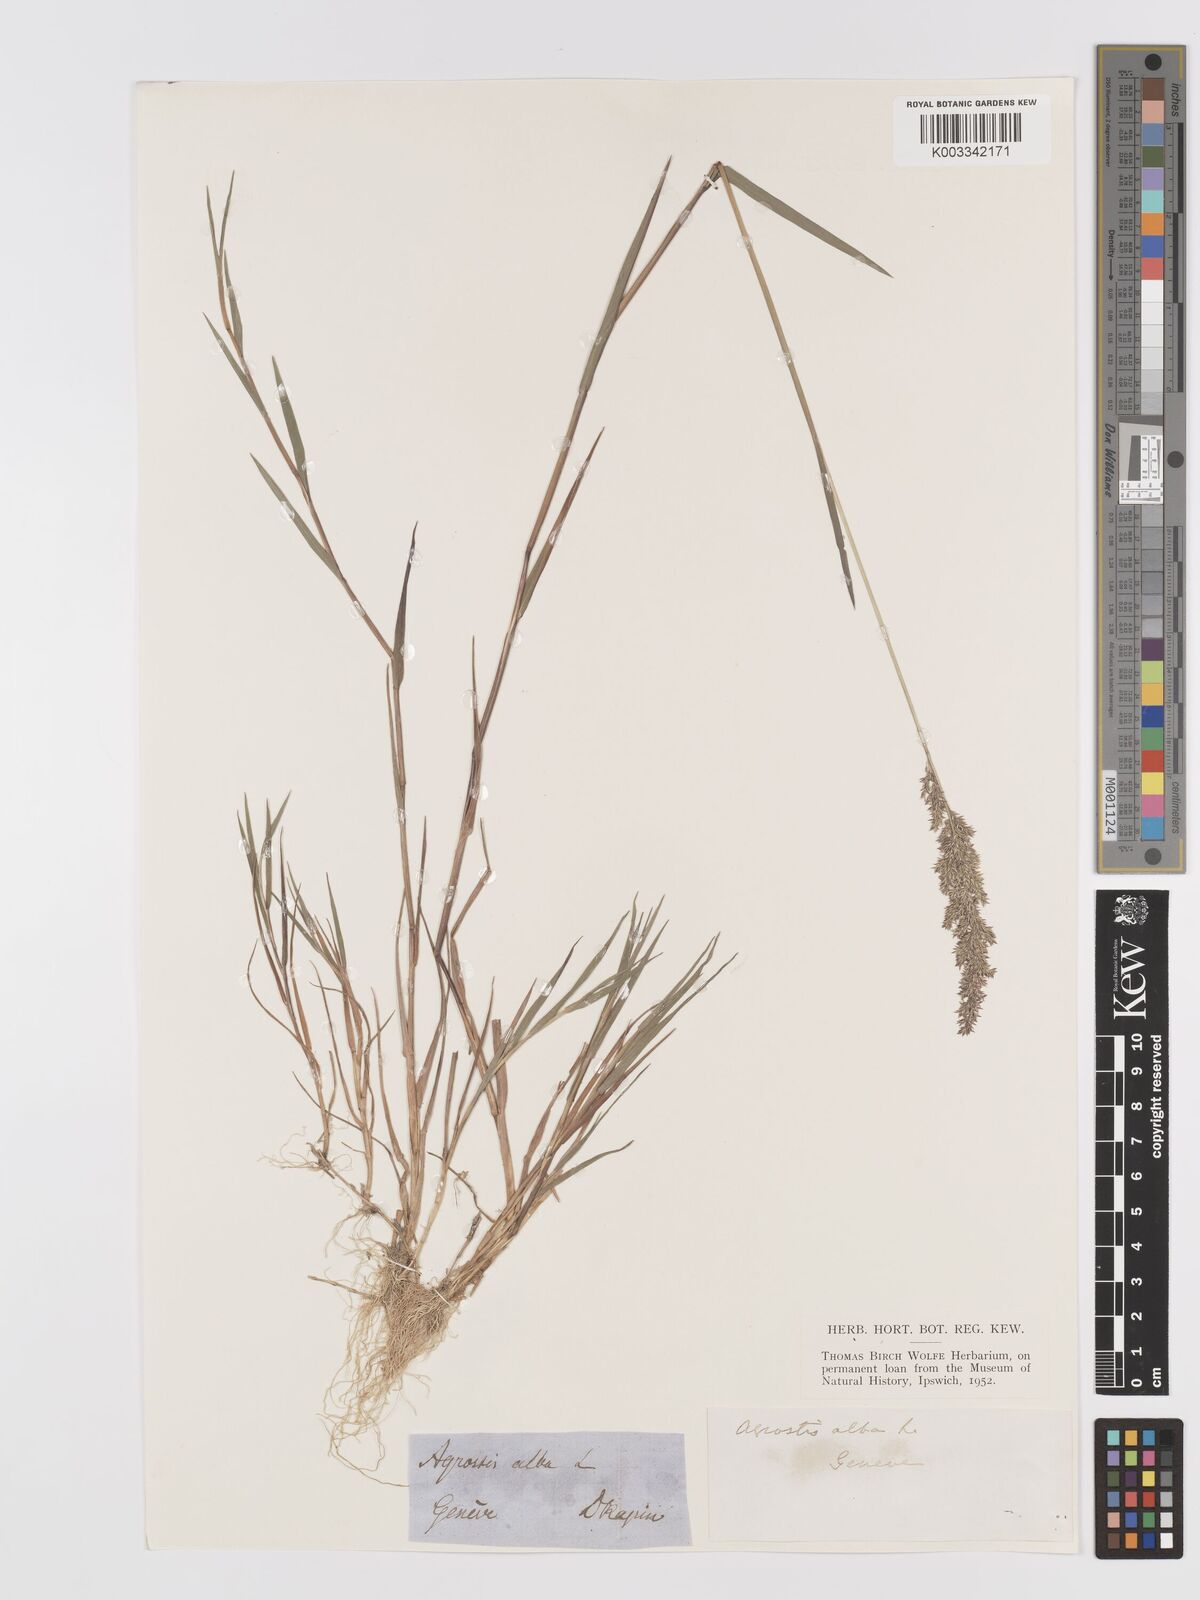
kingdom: Plantae
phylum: Tracheophyta
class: Liliopsida
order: Poales
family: Poaceae
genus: Agrostis
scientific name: Agrostis stolonifera
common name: Creeping bentgrass
